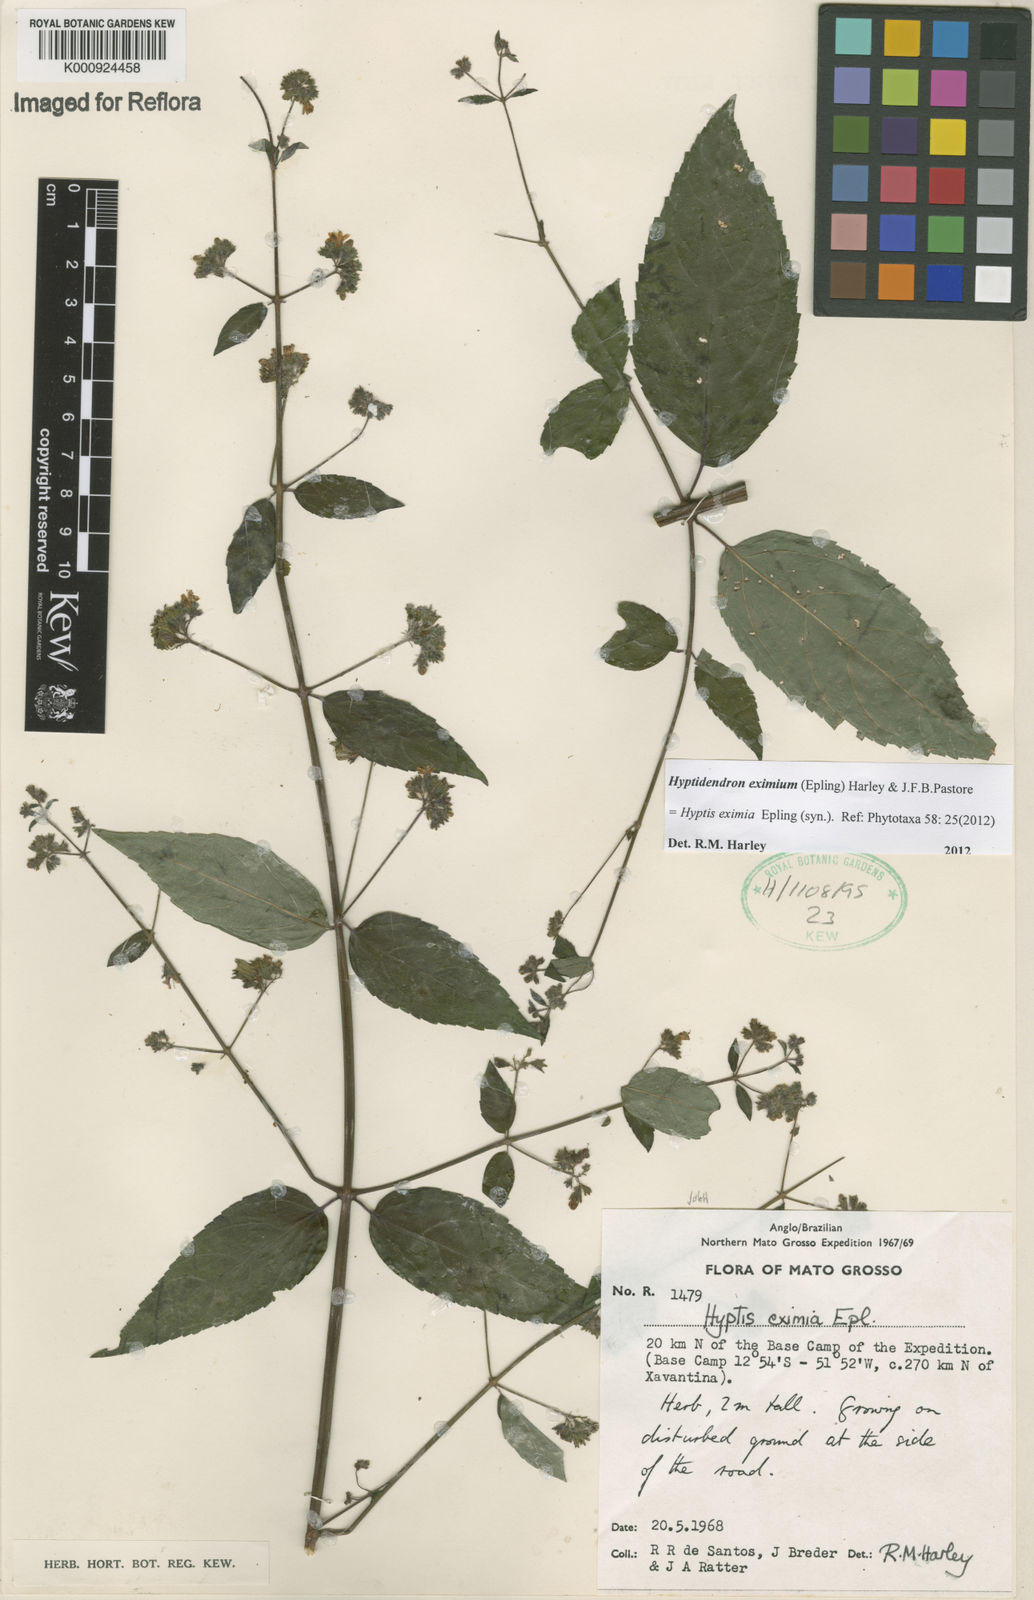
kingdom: Plantae
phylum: Tracheophyta
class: Magnoliopsida
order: Lamiales
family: Lamiaceae
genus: Hyptidendron
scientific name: Hyptidendron eximium
